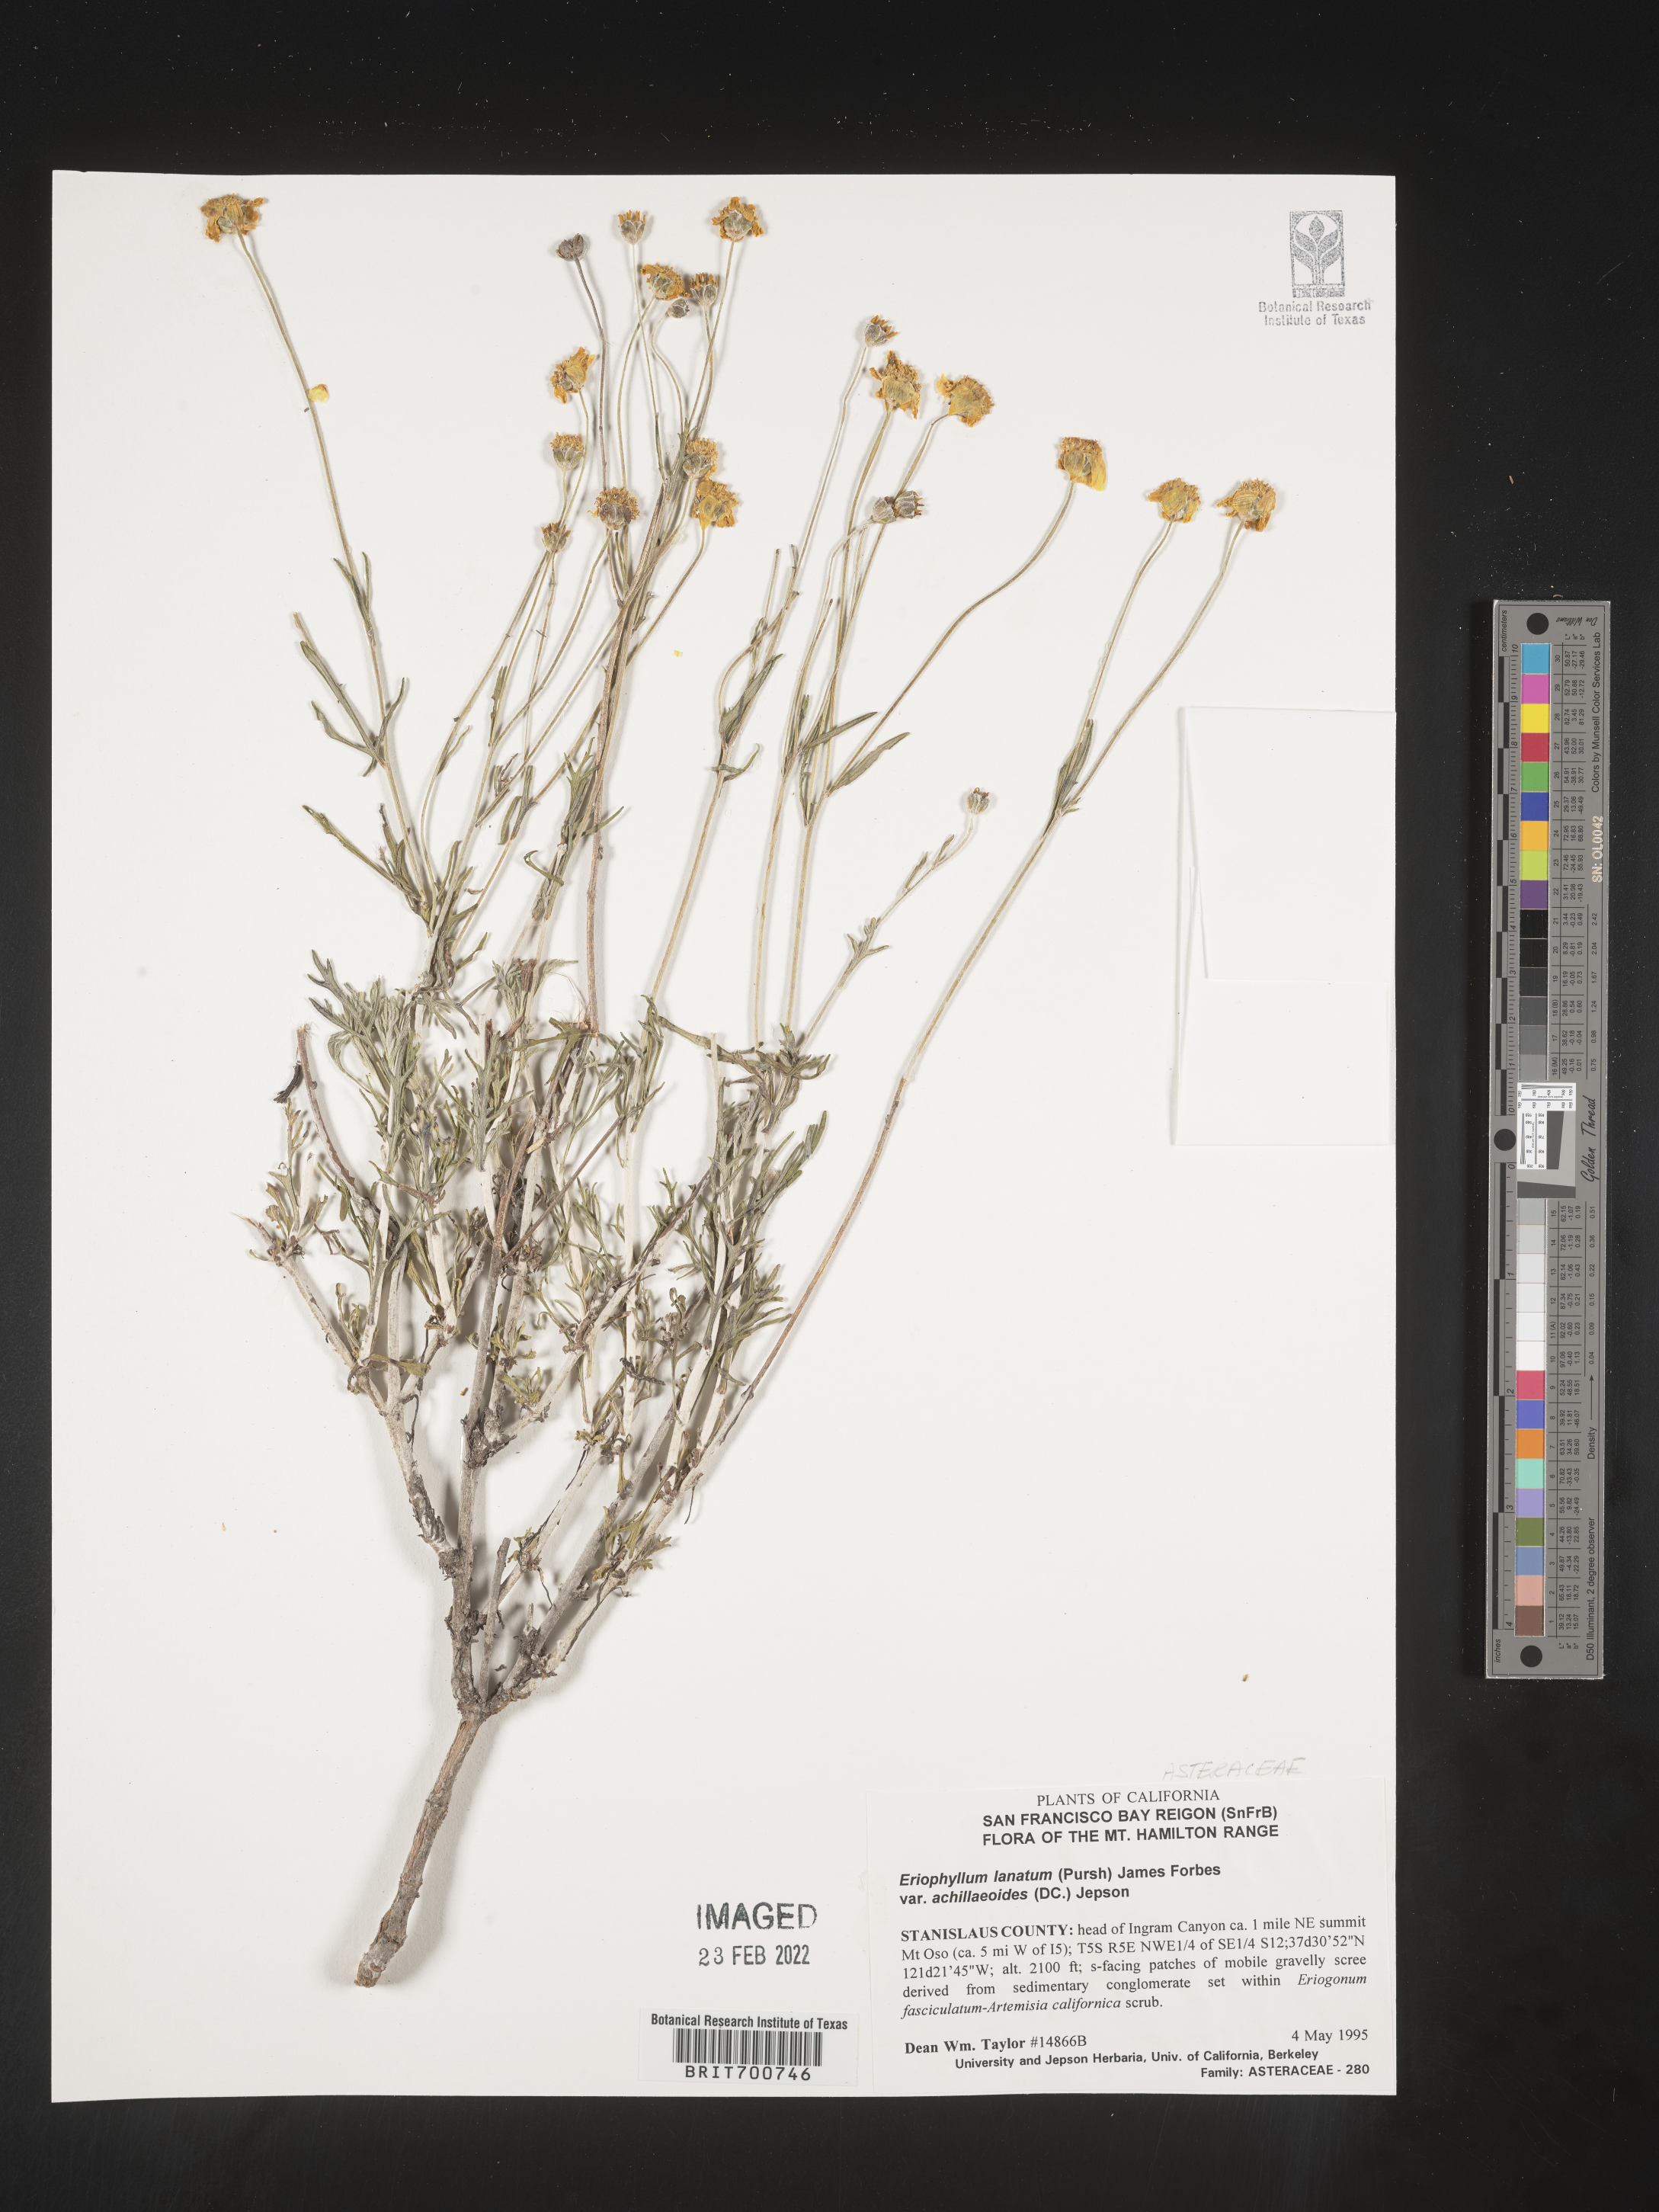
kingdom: Plantae
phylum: Tracheophyta
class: Magnoliopsida
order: Asterales
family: Asteraceae
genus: Eriophyllum
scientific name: Eriophyllum lanatum
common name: Common woolly-sunflower
